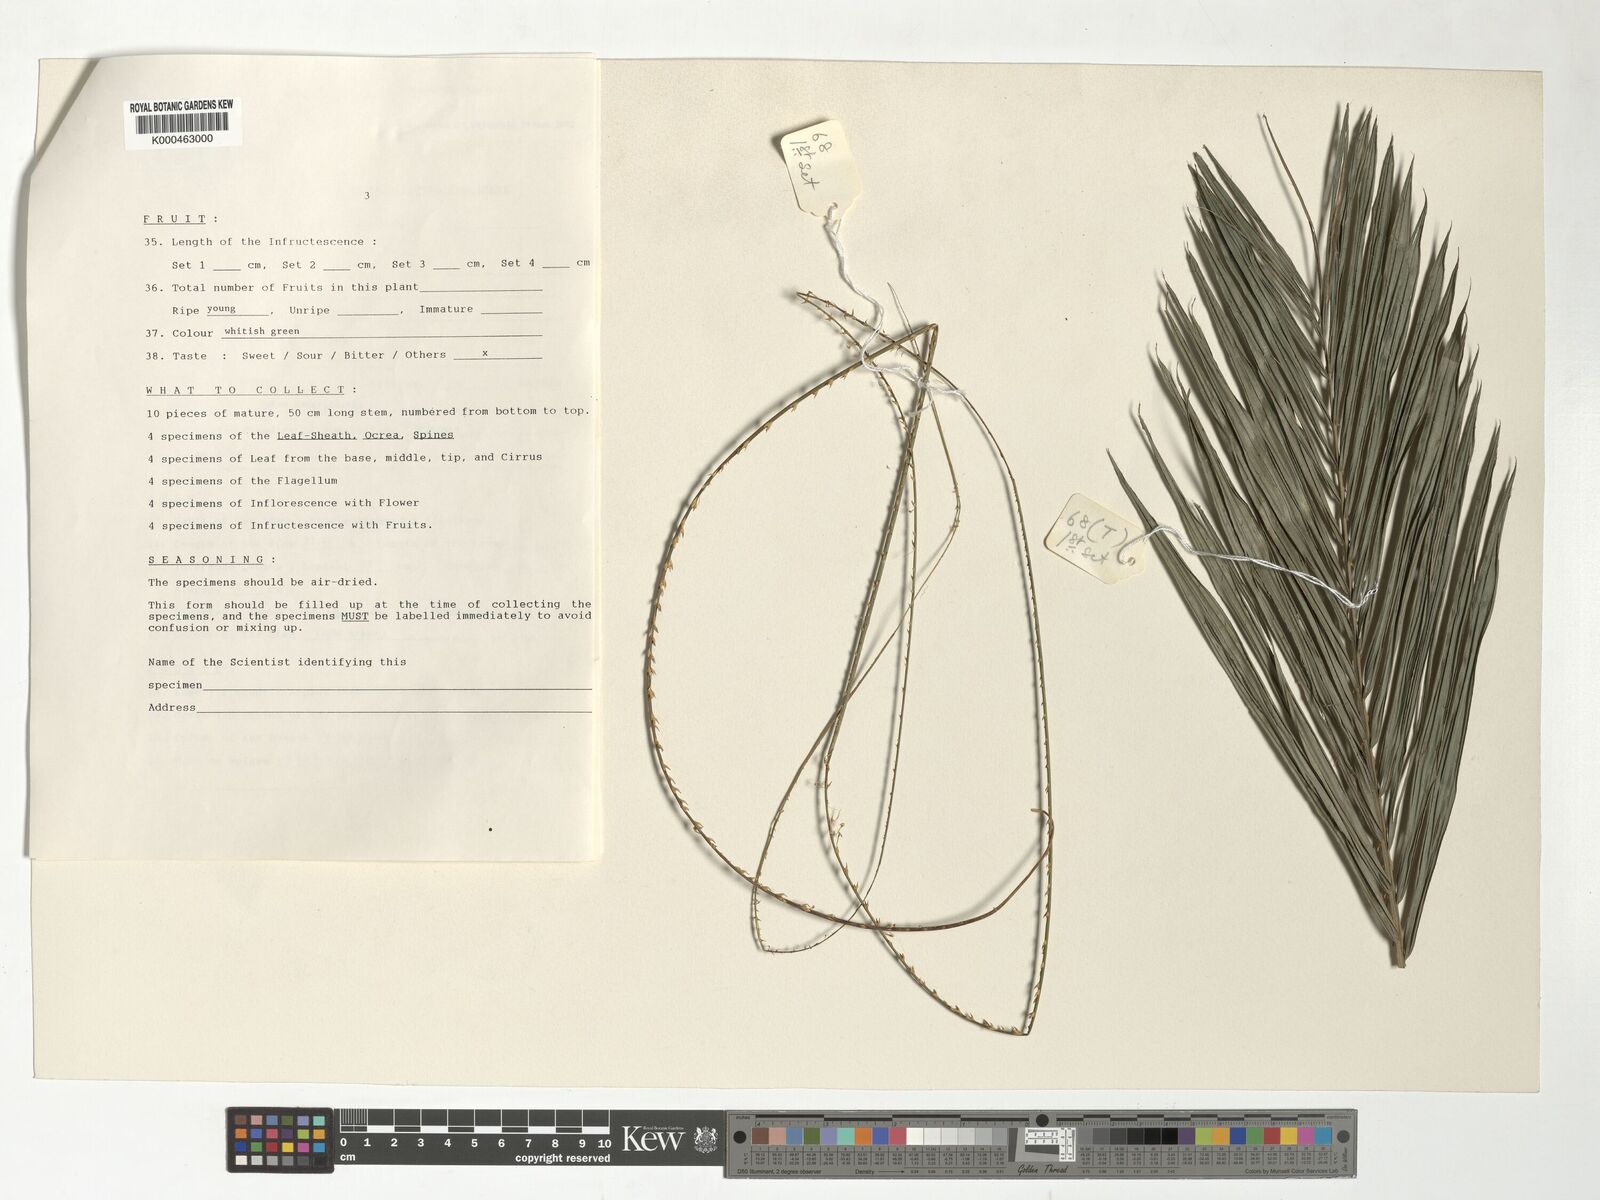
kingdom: Plantae
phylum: Tracheophyta
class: Liliopsida
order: Arecales
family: Arecaceae
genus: Calamus
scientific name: Calamus schlechterianus
